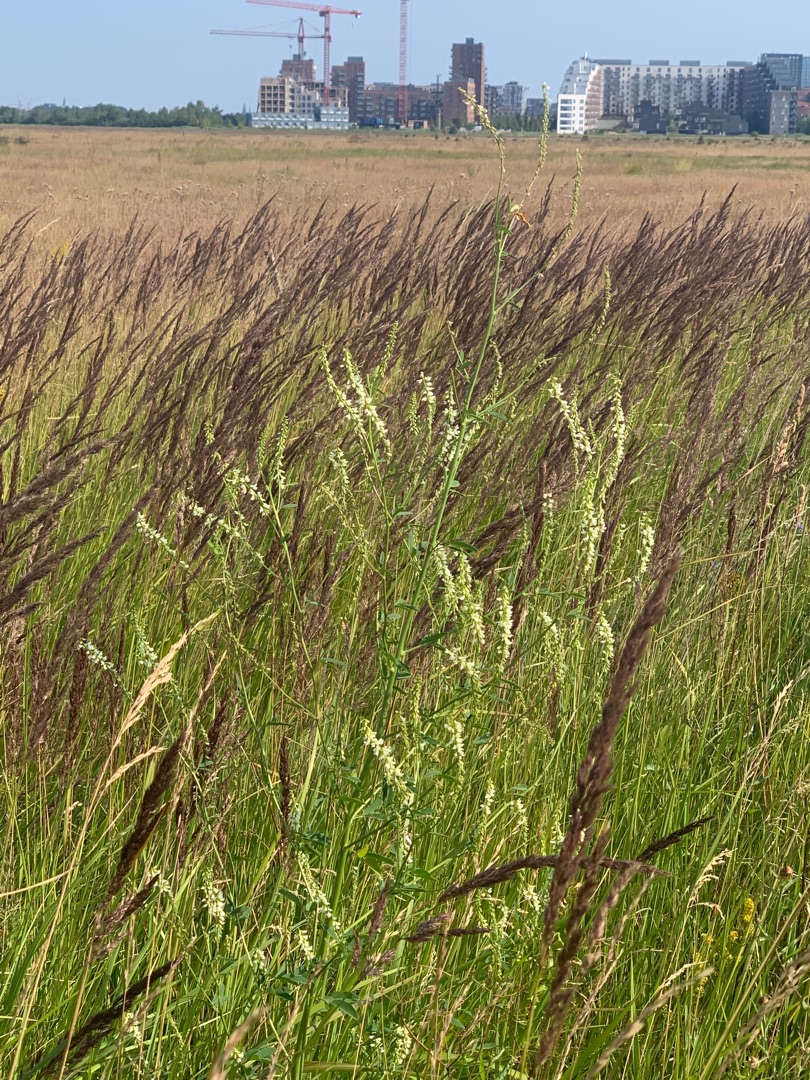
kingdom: Plantae
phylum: Tracheophyta
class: Magnoliopsida
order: Fabales
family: Fabaceae
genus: Melilotus
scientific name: Melilotus albus
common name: Hvid stenkløver
